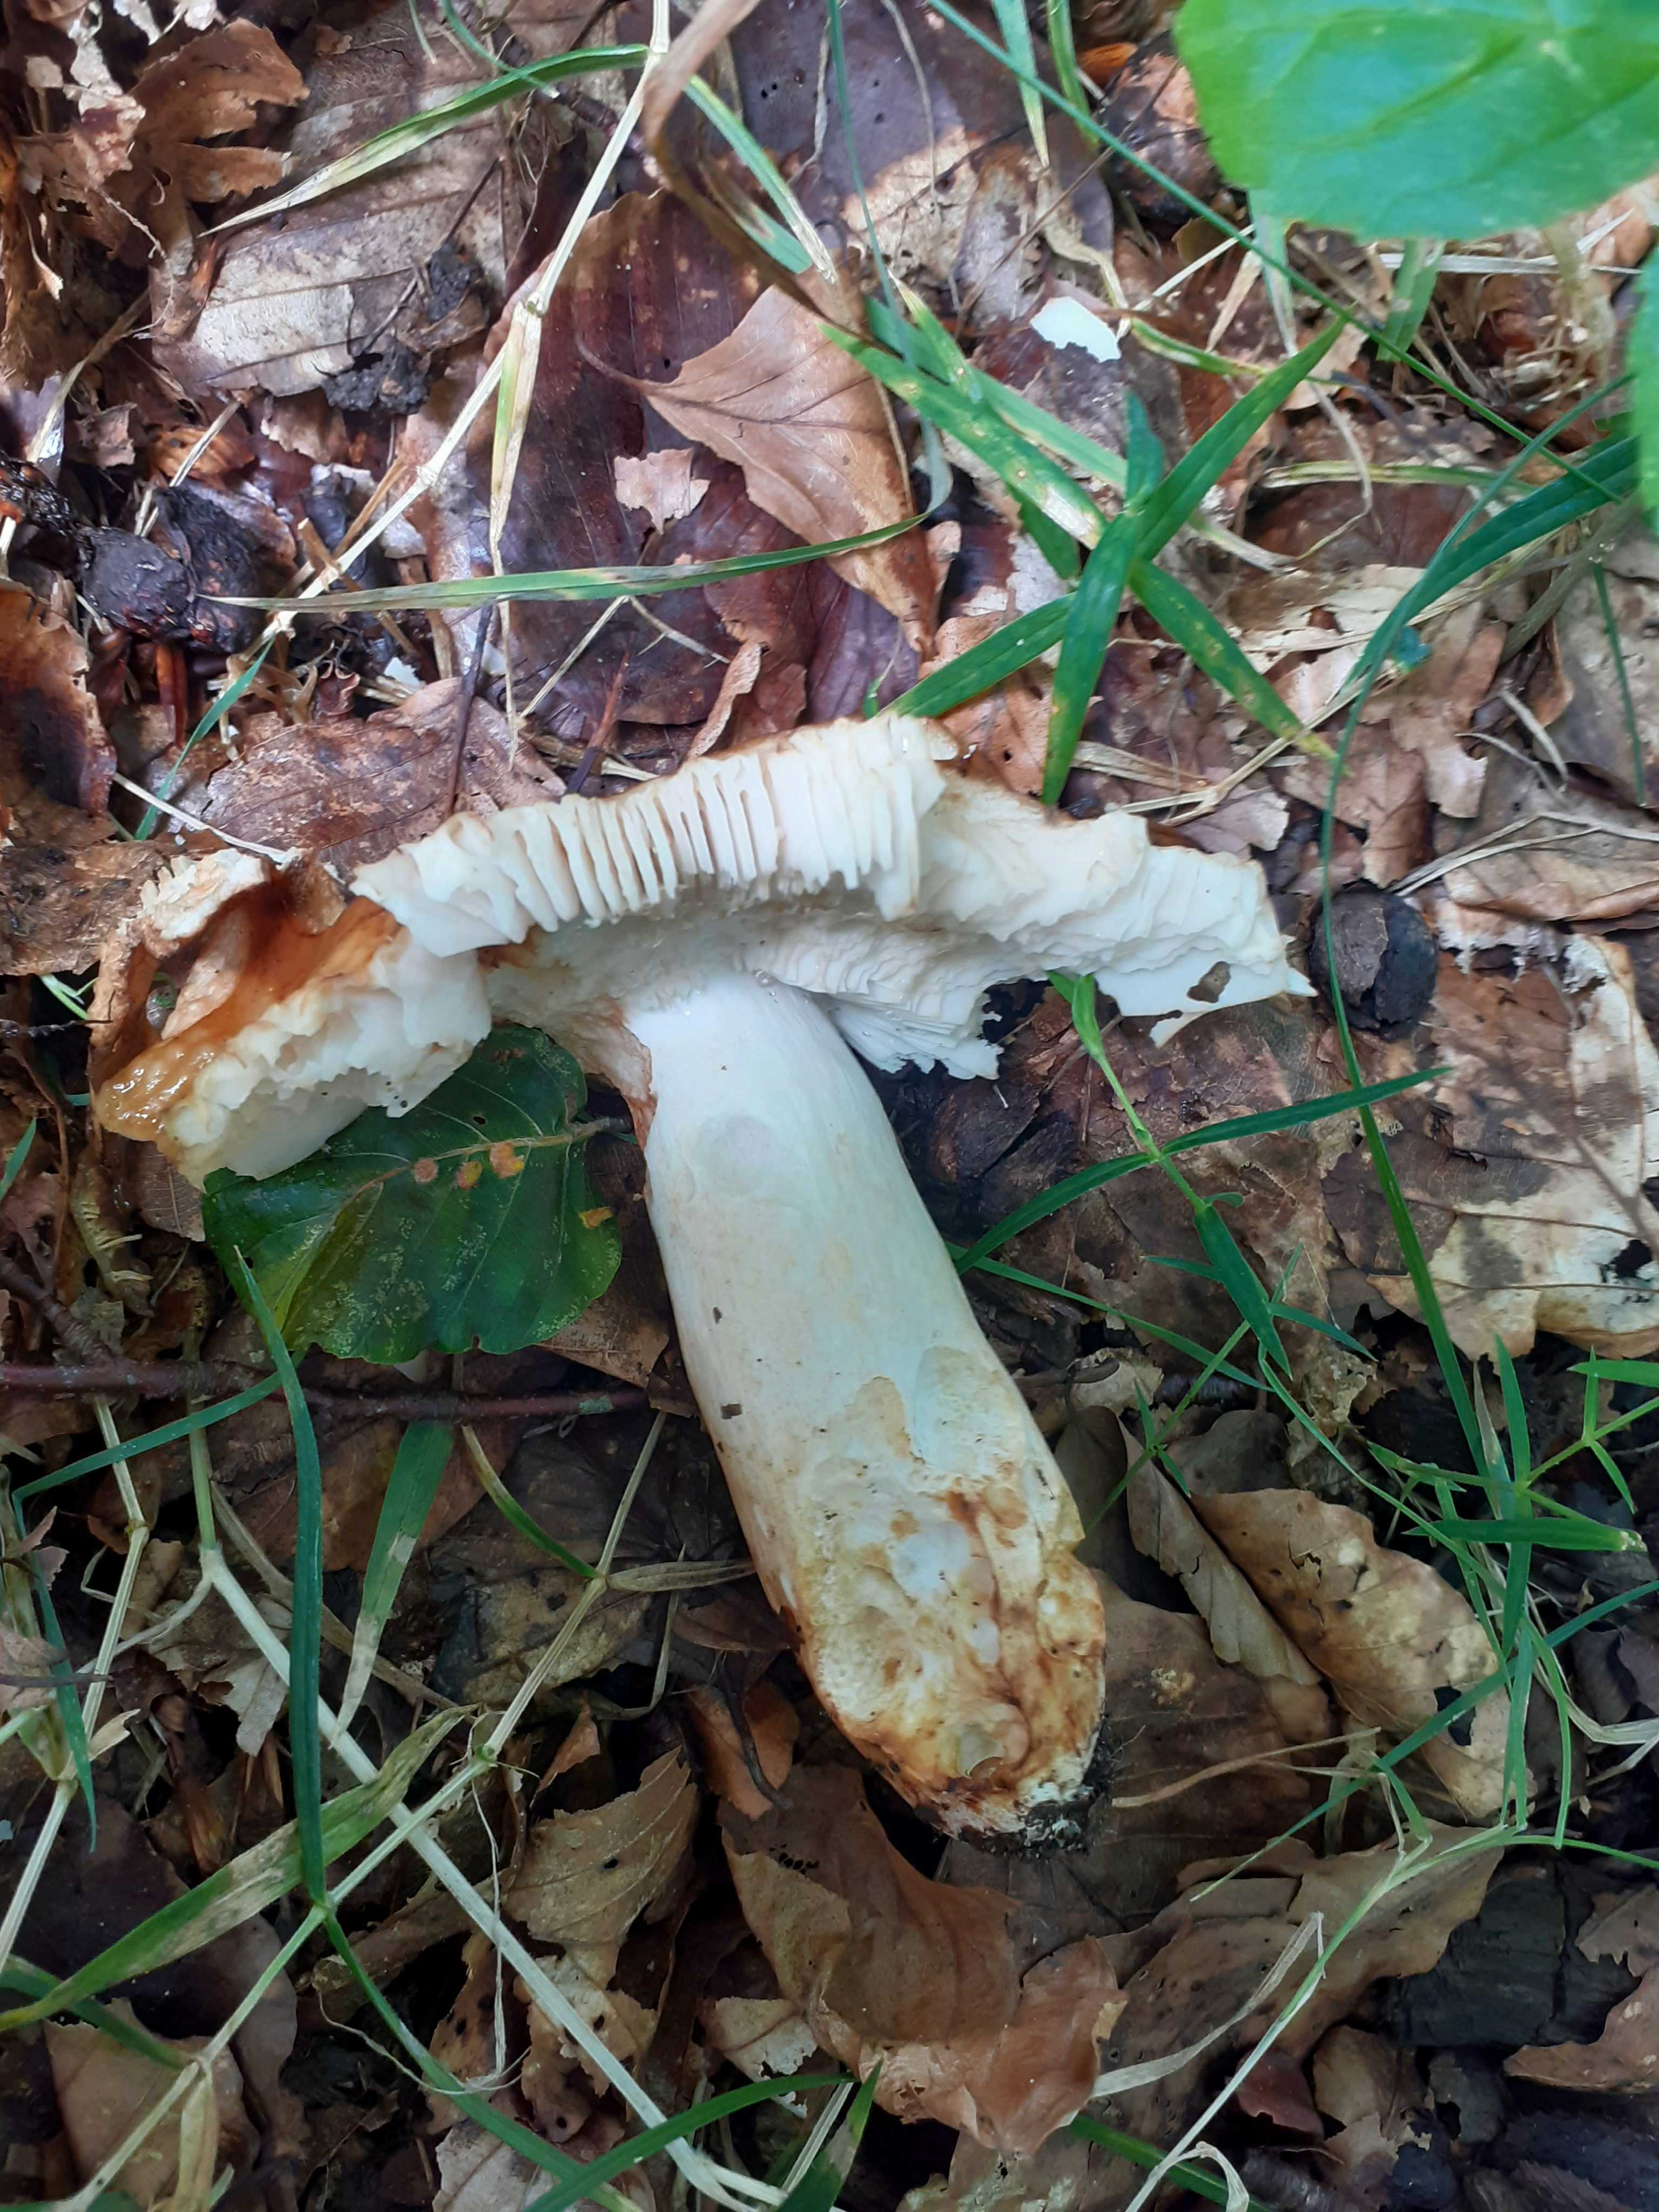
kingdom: Fungi
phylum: Basidiomycota
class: Agaricomycetes
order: Russulales
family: Russulaceae
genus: Russula
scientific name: Russula grata
